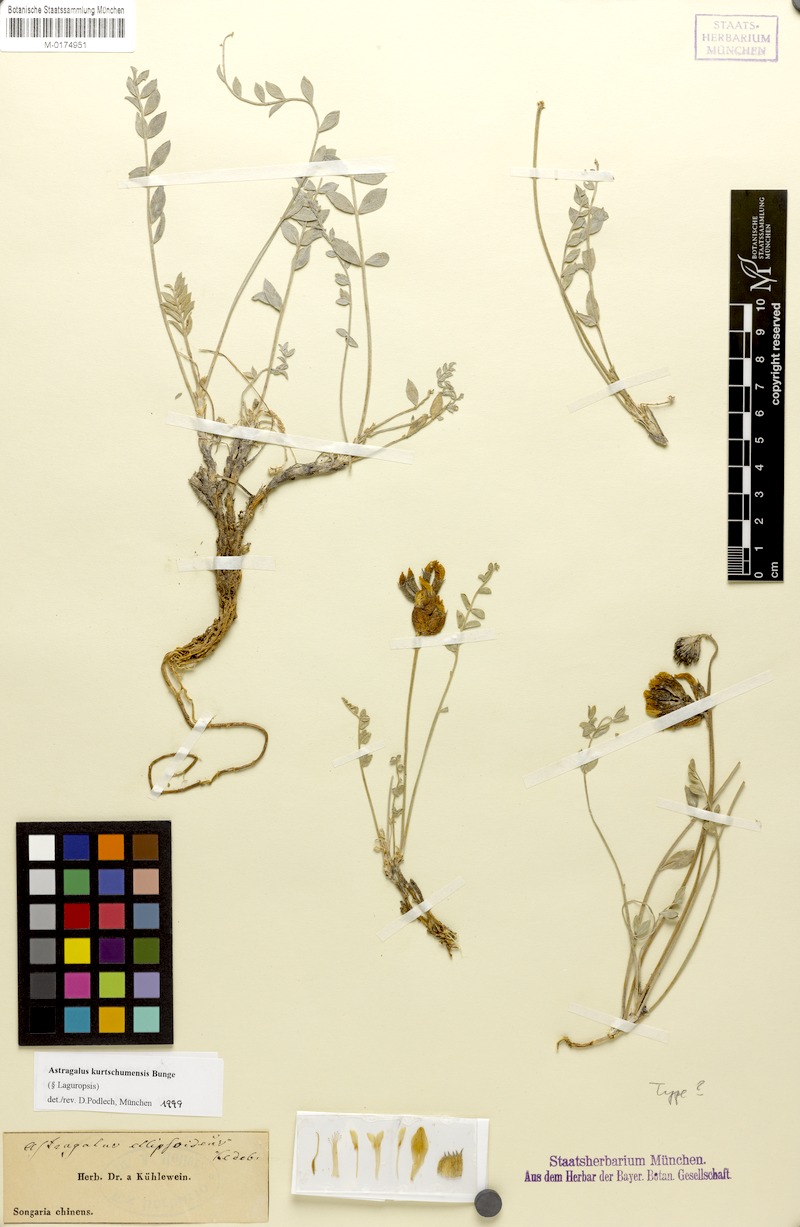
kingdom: Plantae
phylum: Tracheophyta
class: Magnoliopsida
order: Fabales
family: Fabaceae
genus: Astragalus
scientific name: Astragalus kurtschumensis
